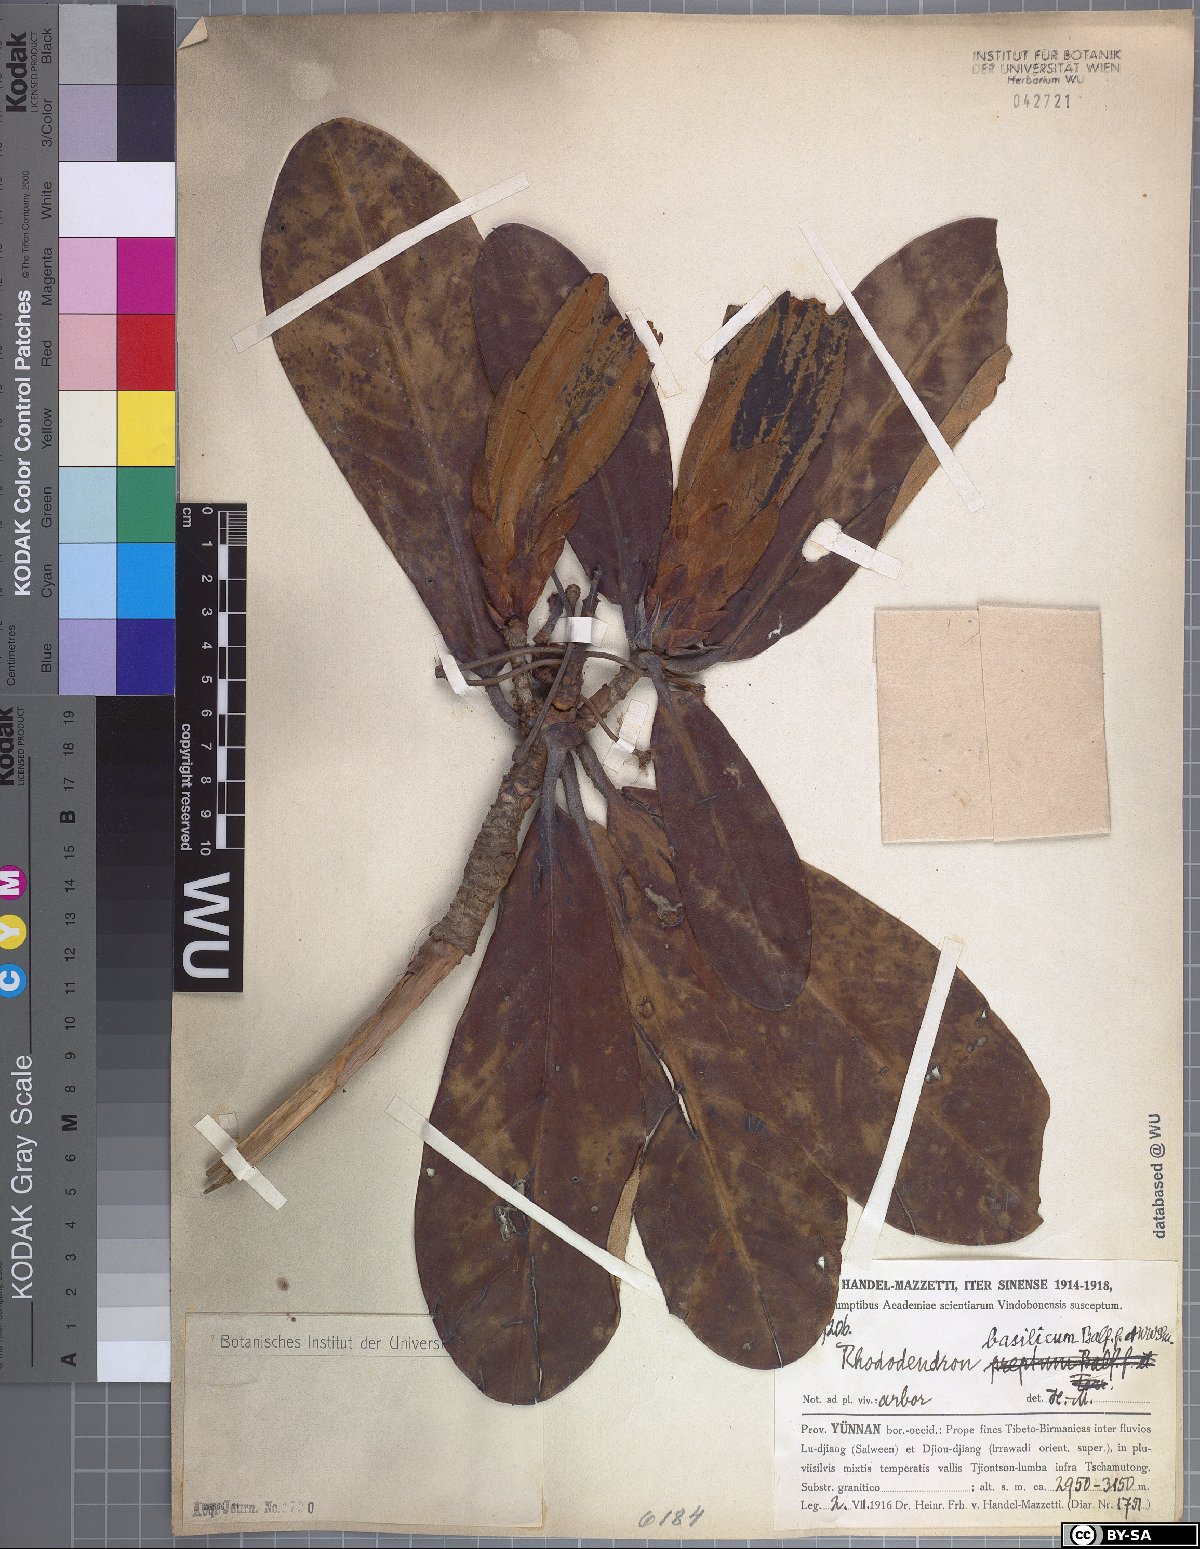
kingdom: Plantae
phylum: Tracheophyta
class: Magnoliopsida
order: Ericales
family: Ericaceae
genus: Rhododendron
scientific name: Rhododendron basilicum
